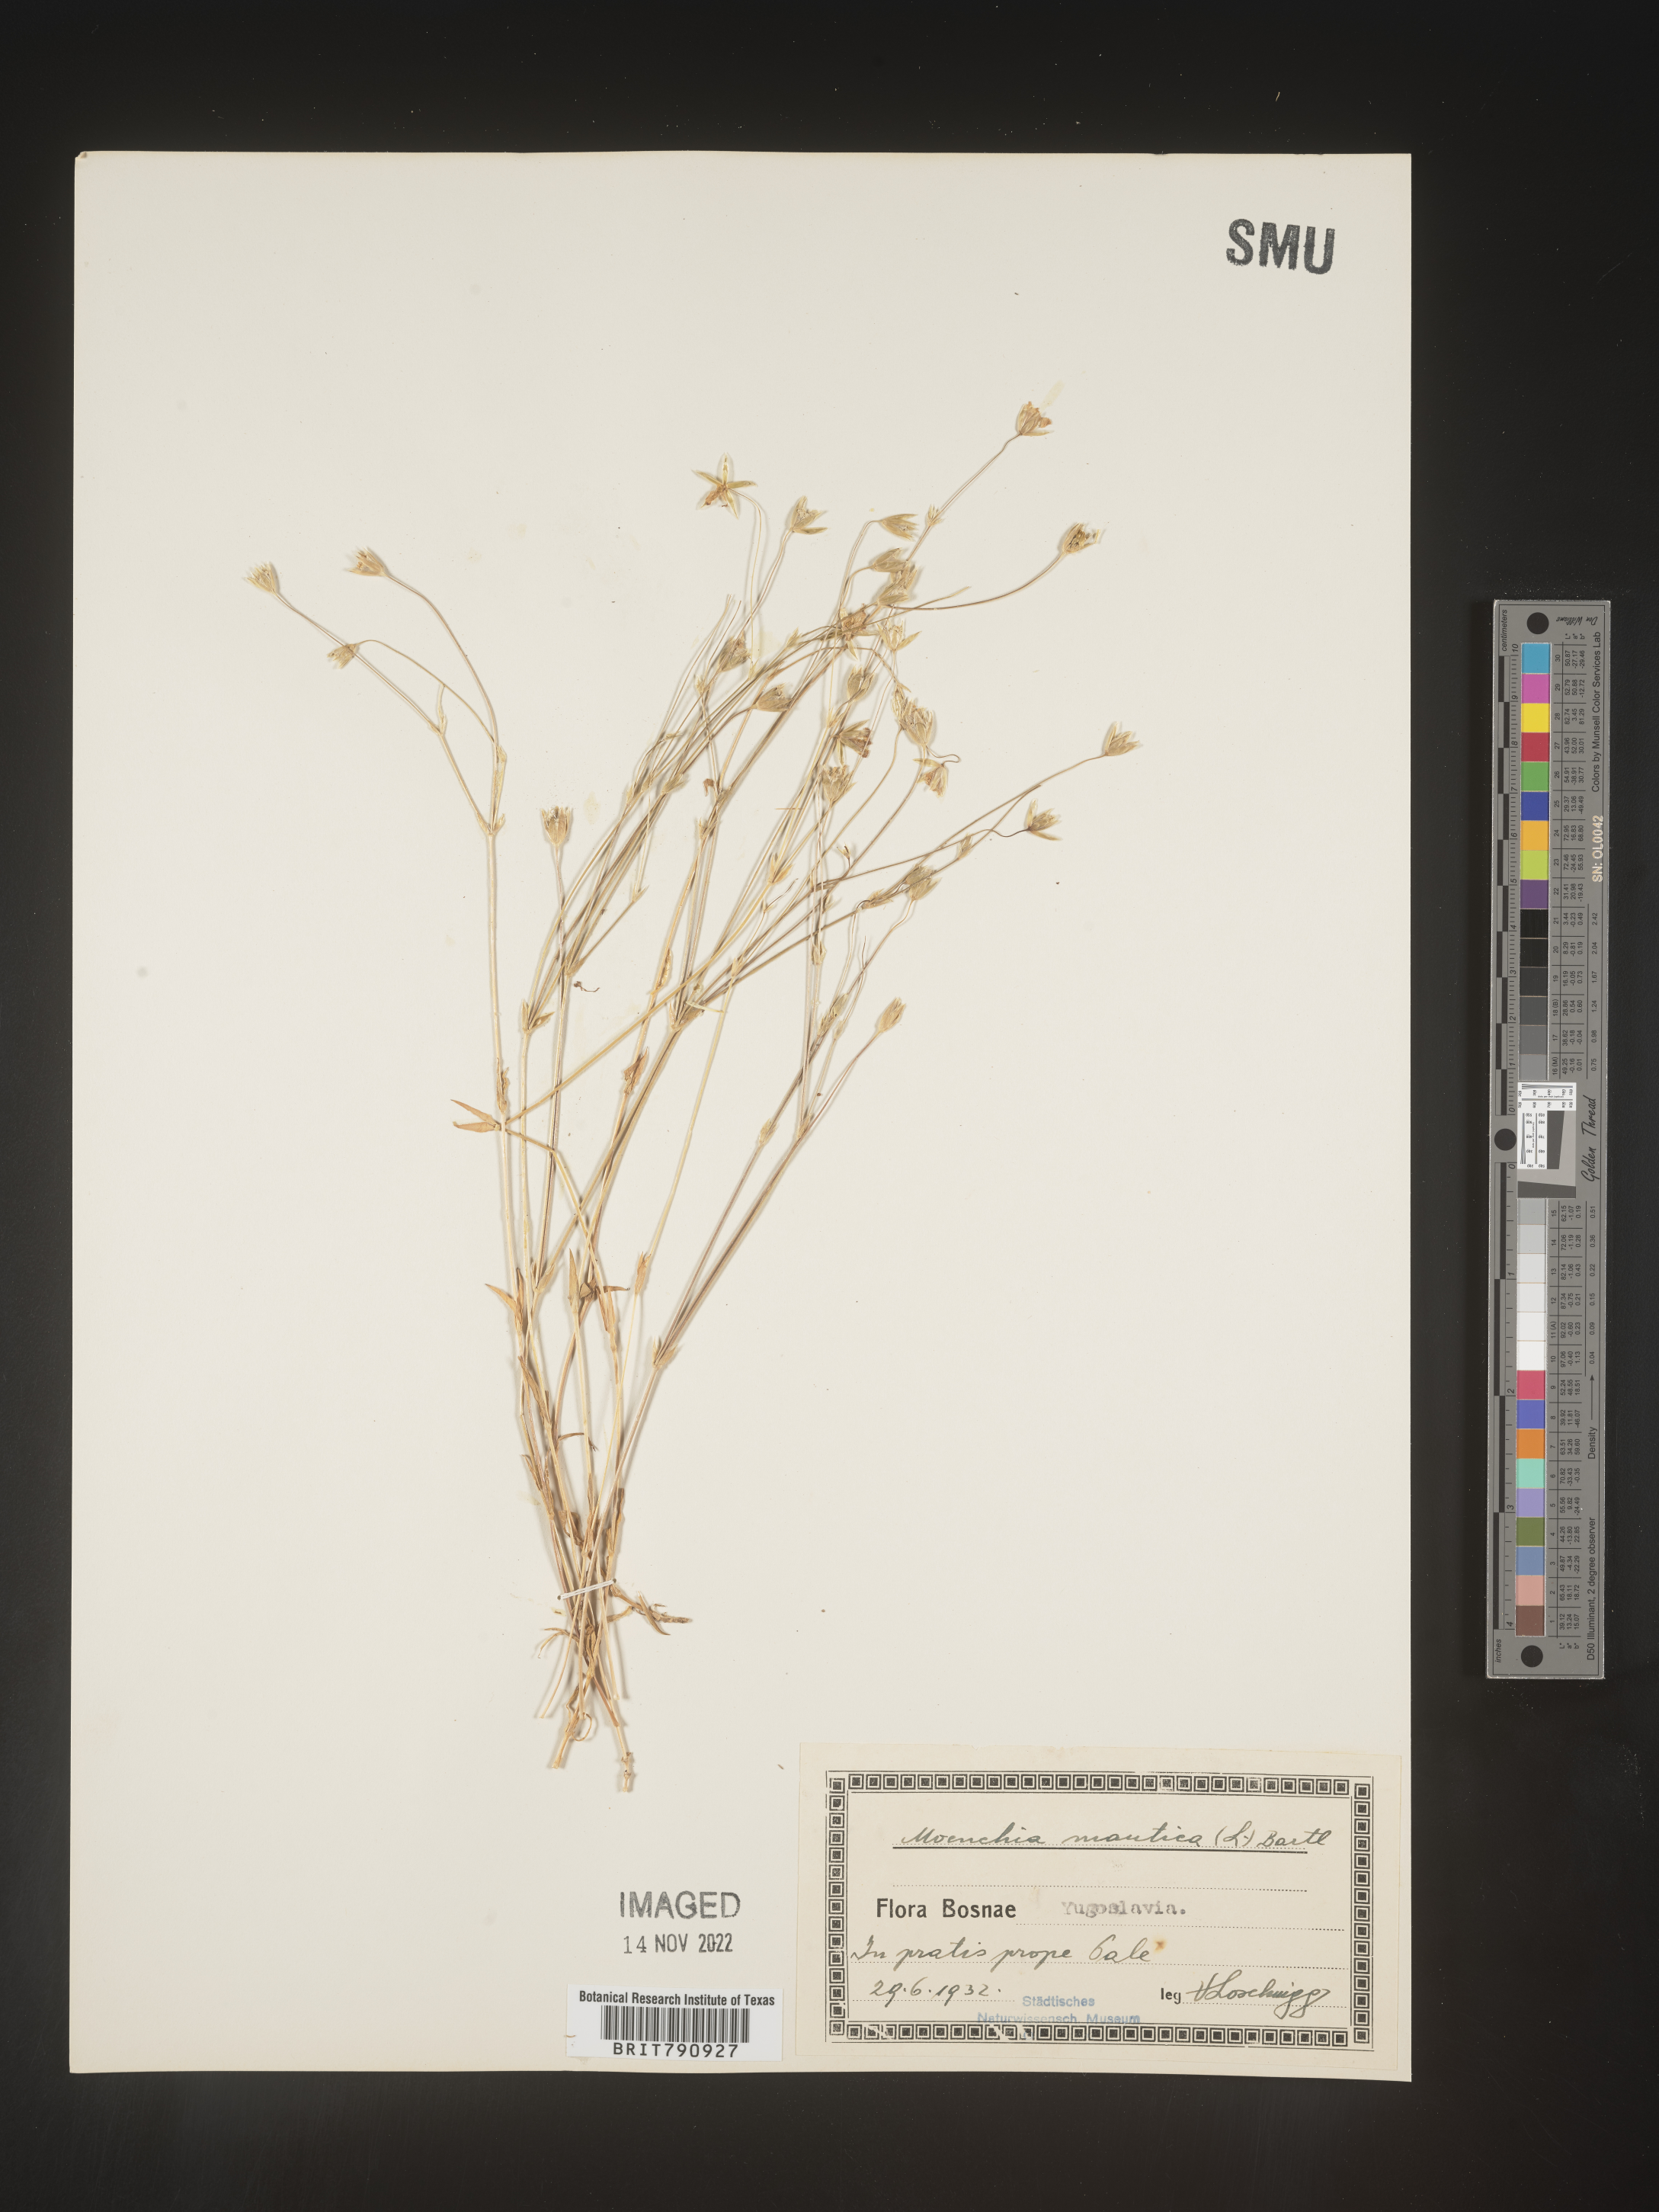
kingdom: Plantae
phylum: Tracheophyta
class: Magnoliopsida
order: Caryophyllales
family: Caryophyllaceae
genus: Moenchia
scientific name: Moenchia
